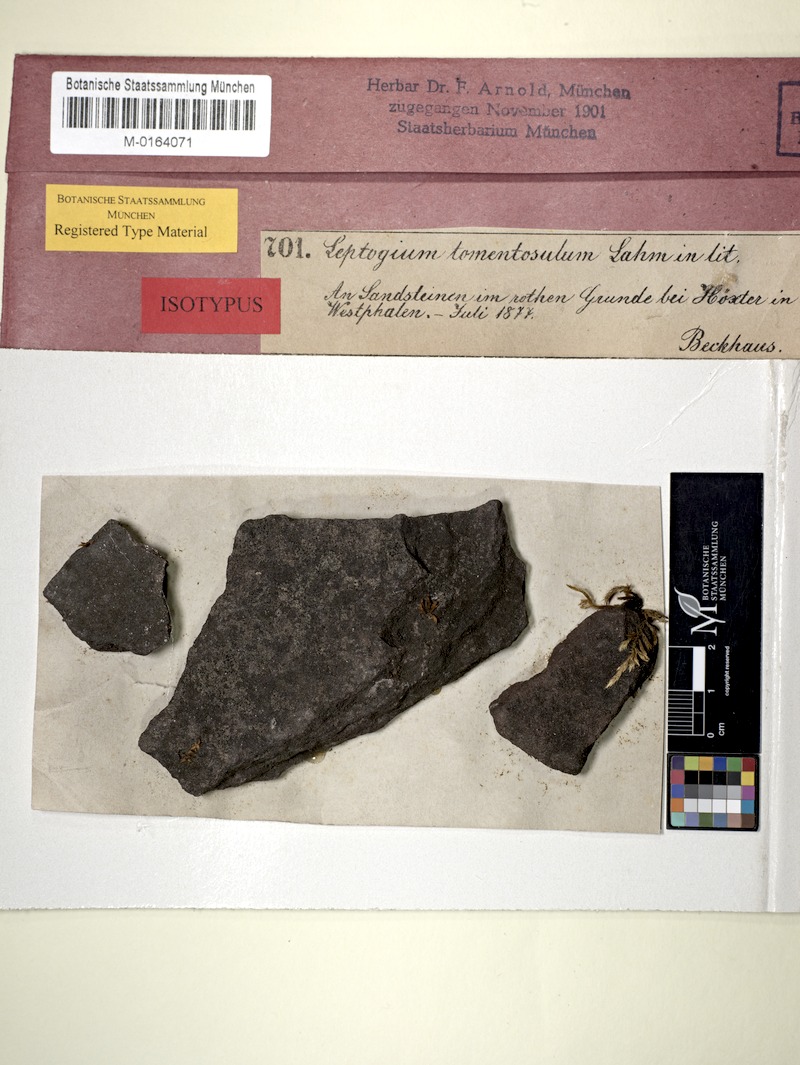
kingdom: Fungi
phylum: Ascomycota
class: Lecanoromycetes
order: Peltigerales
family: Collemataceae
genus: Leptogium
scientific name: Leptogium
